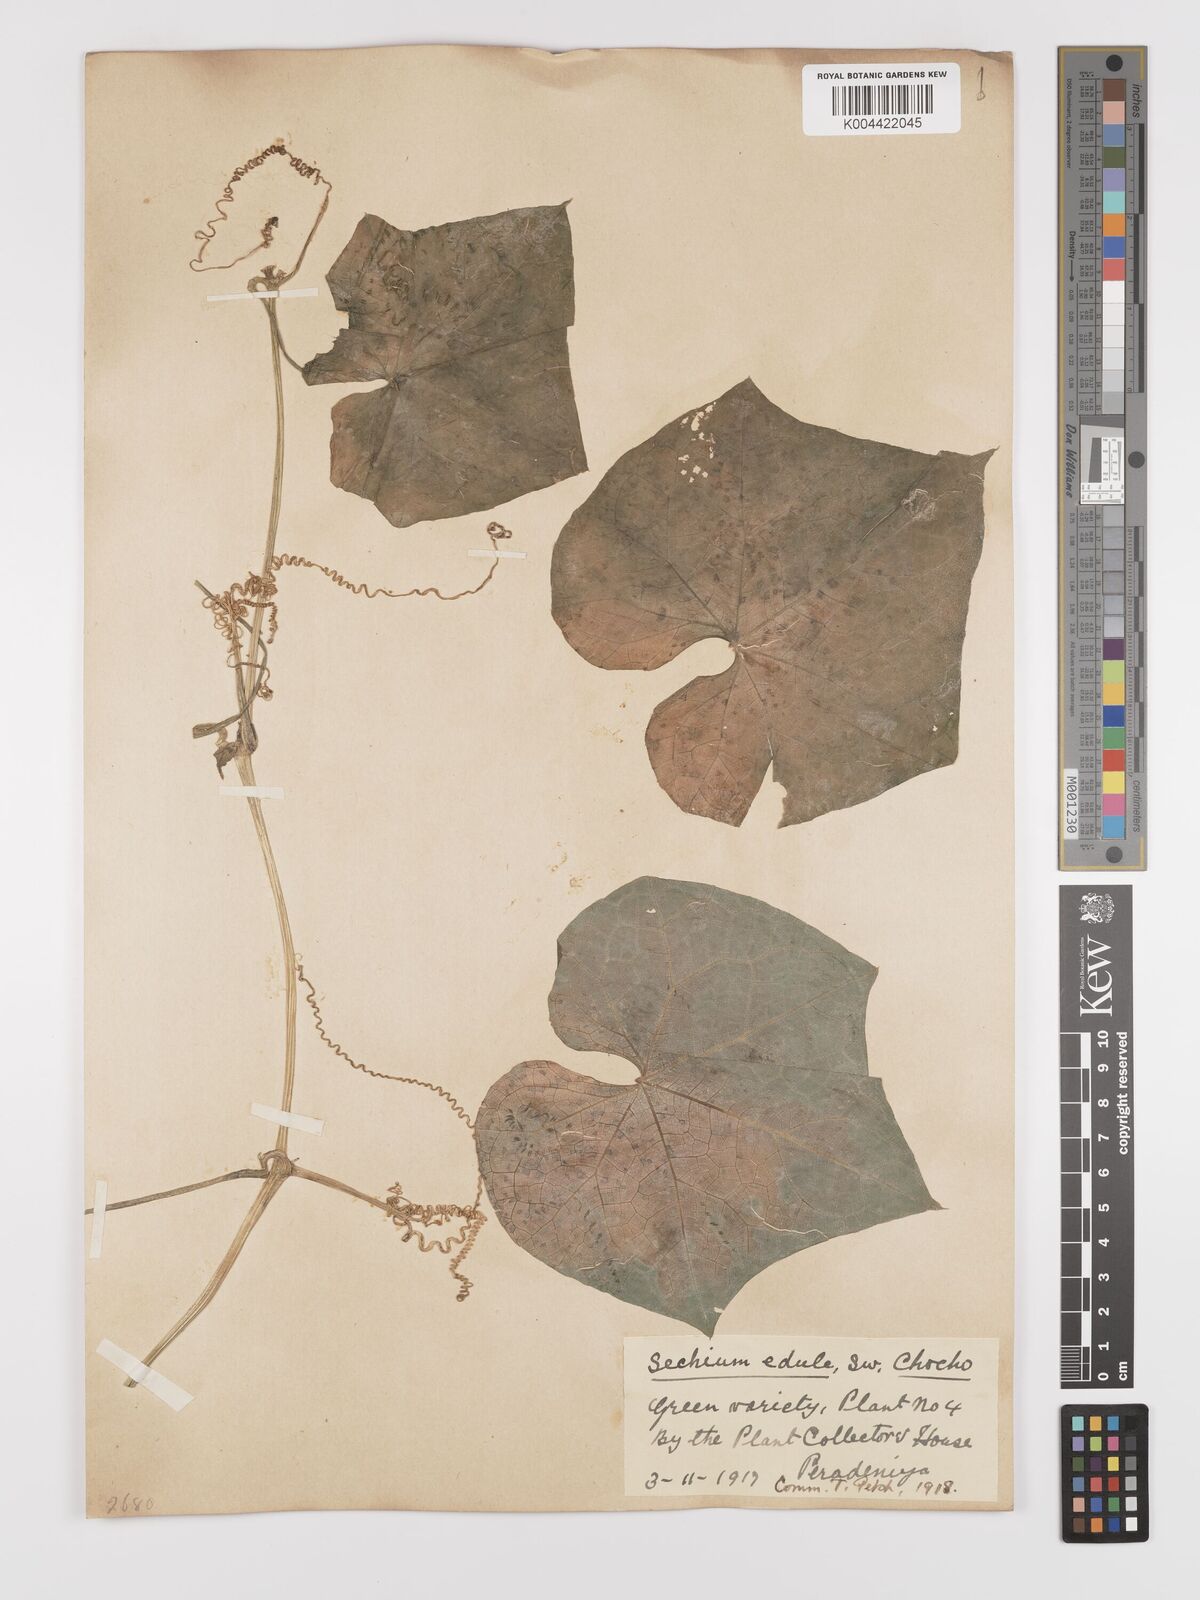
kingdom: Plantae
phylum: Tracheophyta
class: Magnoliopsida
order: Cucurbitales
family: Cucurbitaceae
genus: Sechium
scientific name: Sechium edule
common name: Chayote
